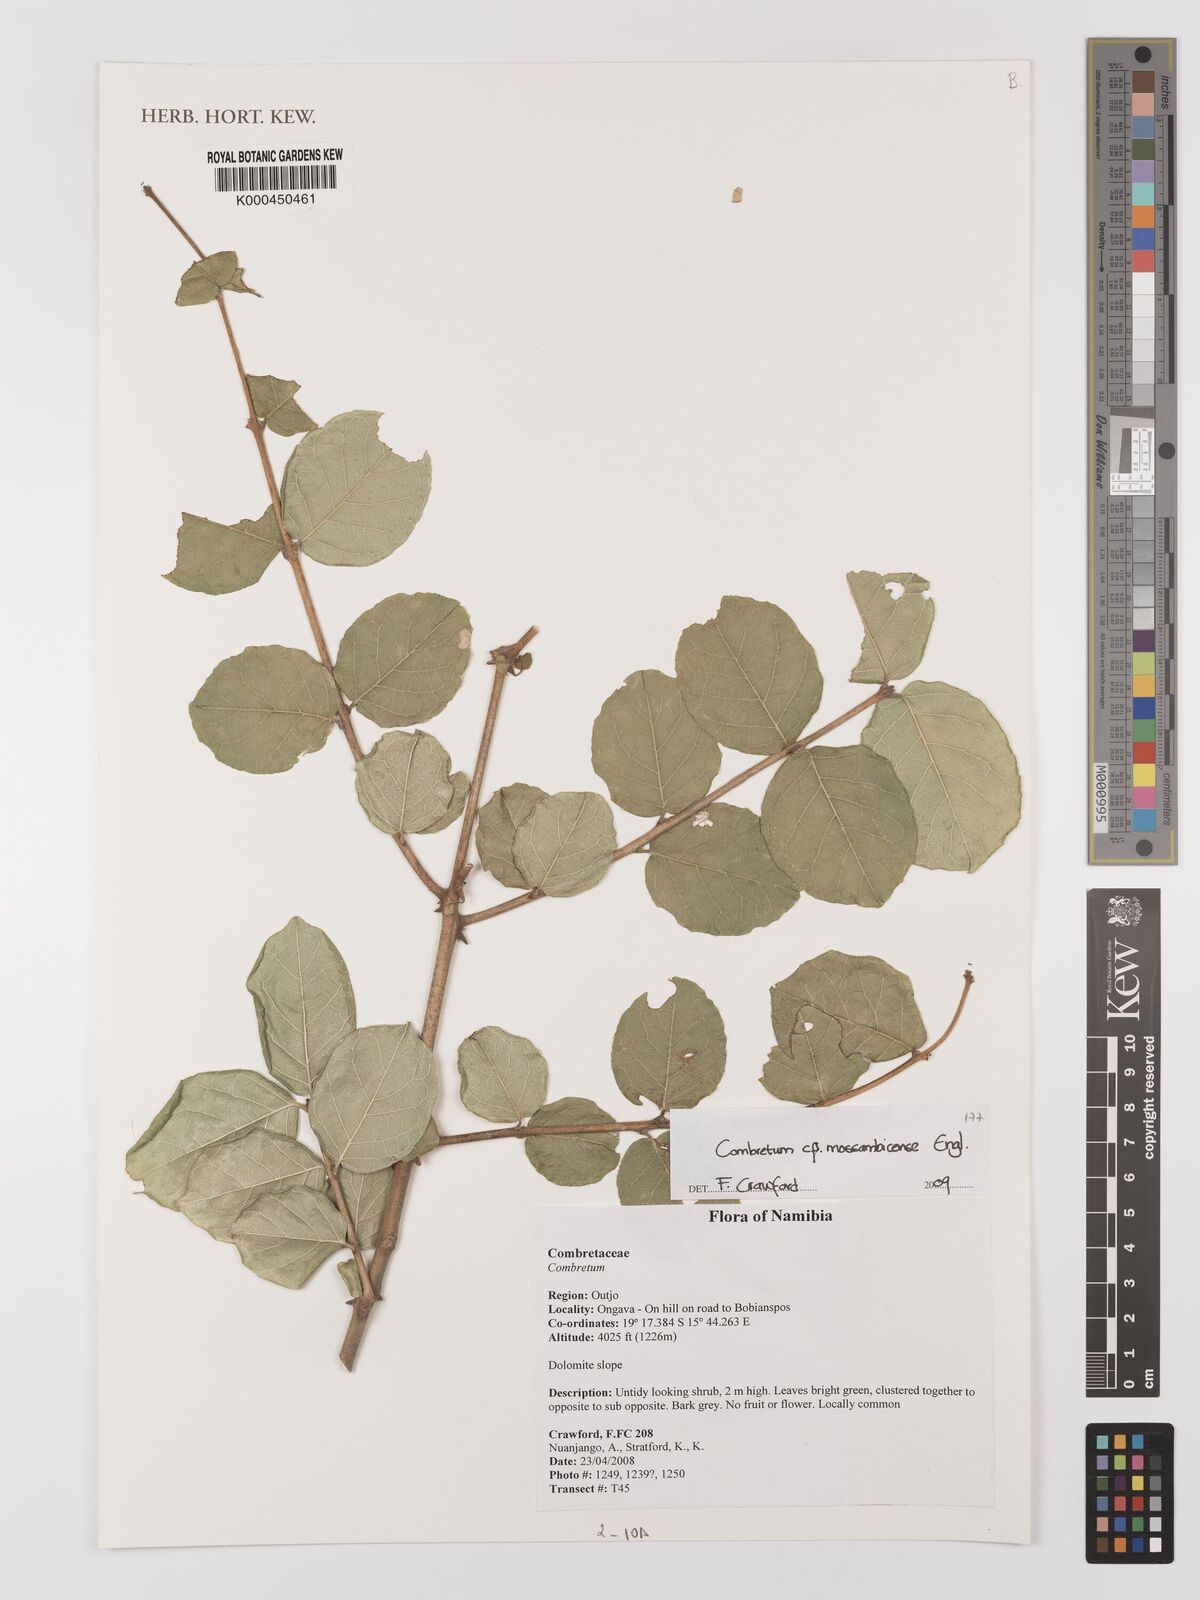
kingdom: Plantae
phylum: Tracheophyta
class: Magnoliopsida
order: Myrtales
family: Combretaceae
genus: Combretum
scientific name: Combretum mossambicense
